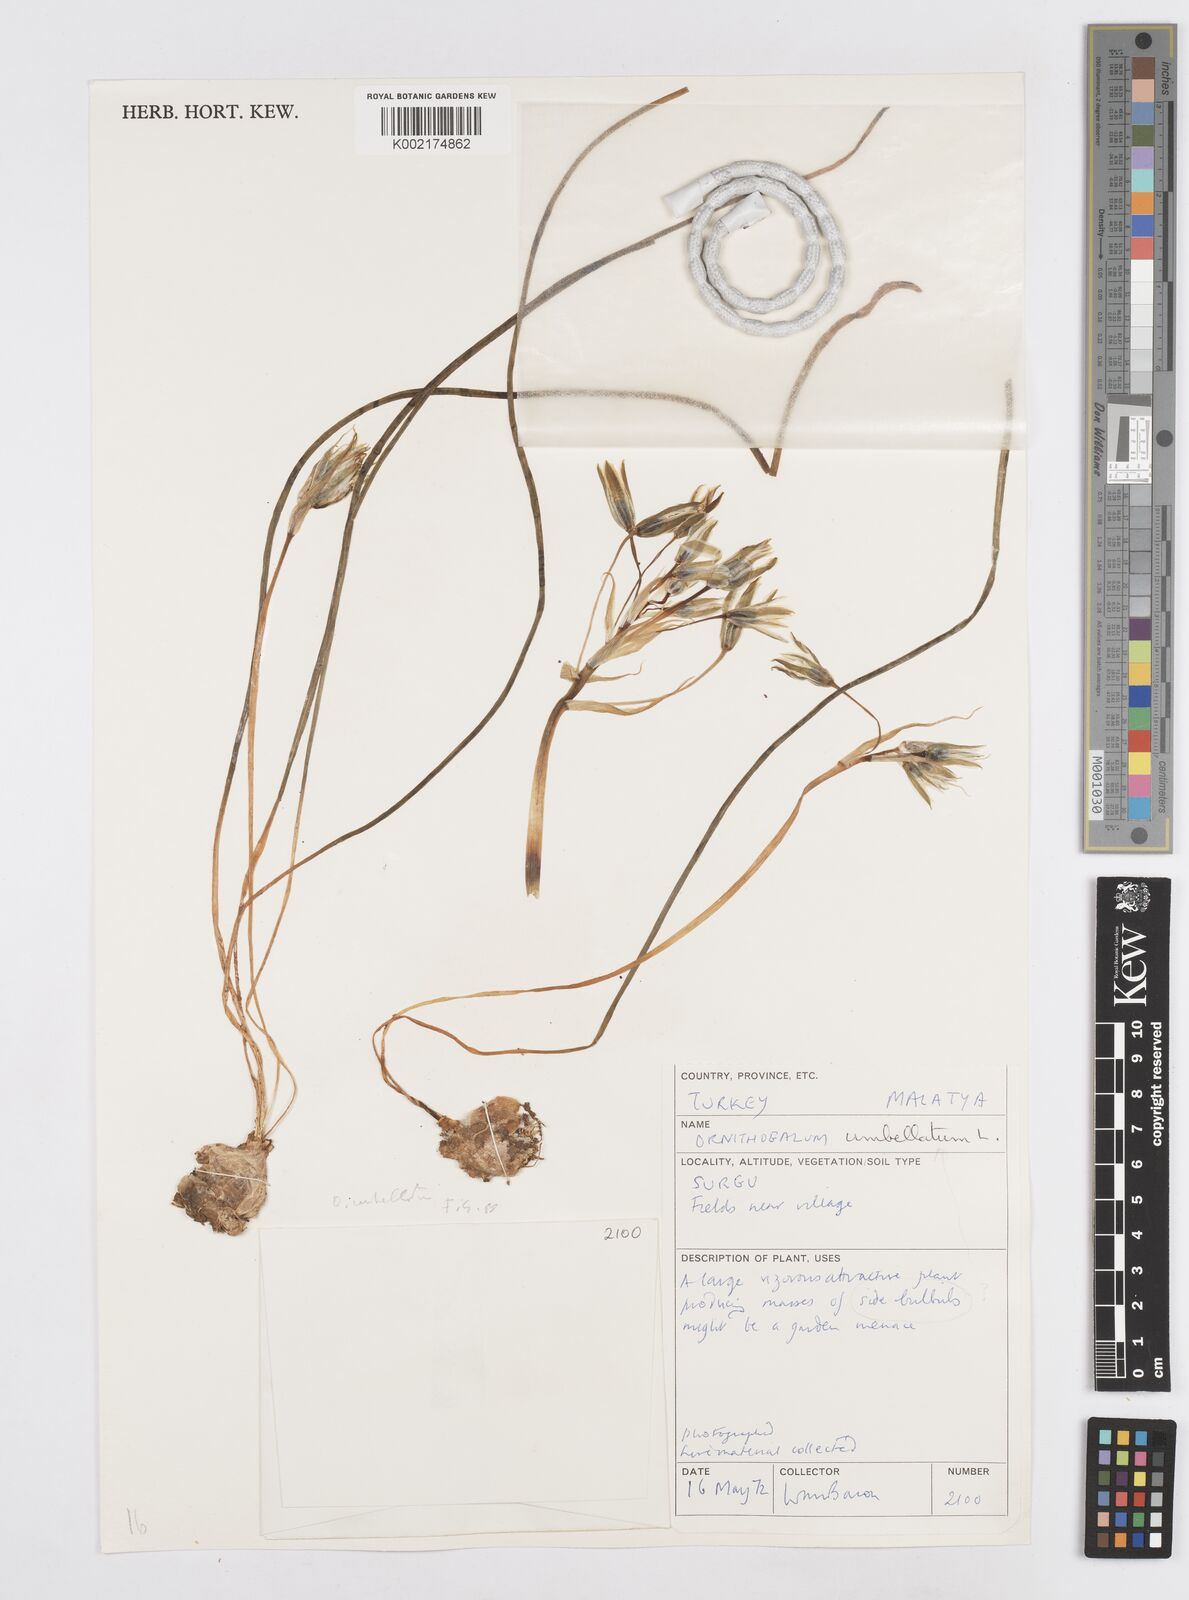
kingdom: Plantae
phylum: Tracheophyta
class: Liliopsida
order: Asparagales
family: Asparagaceae
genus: Ornithogalum
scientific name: Ornithogalum umbellatum
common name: Garden star-of-bethlehem
